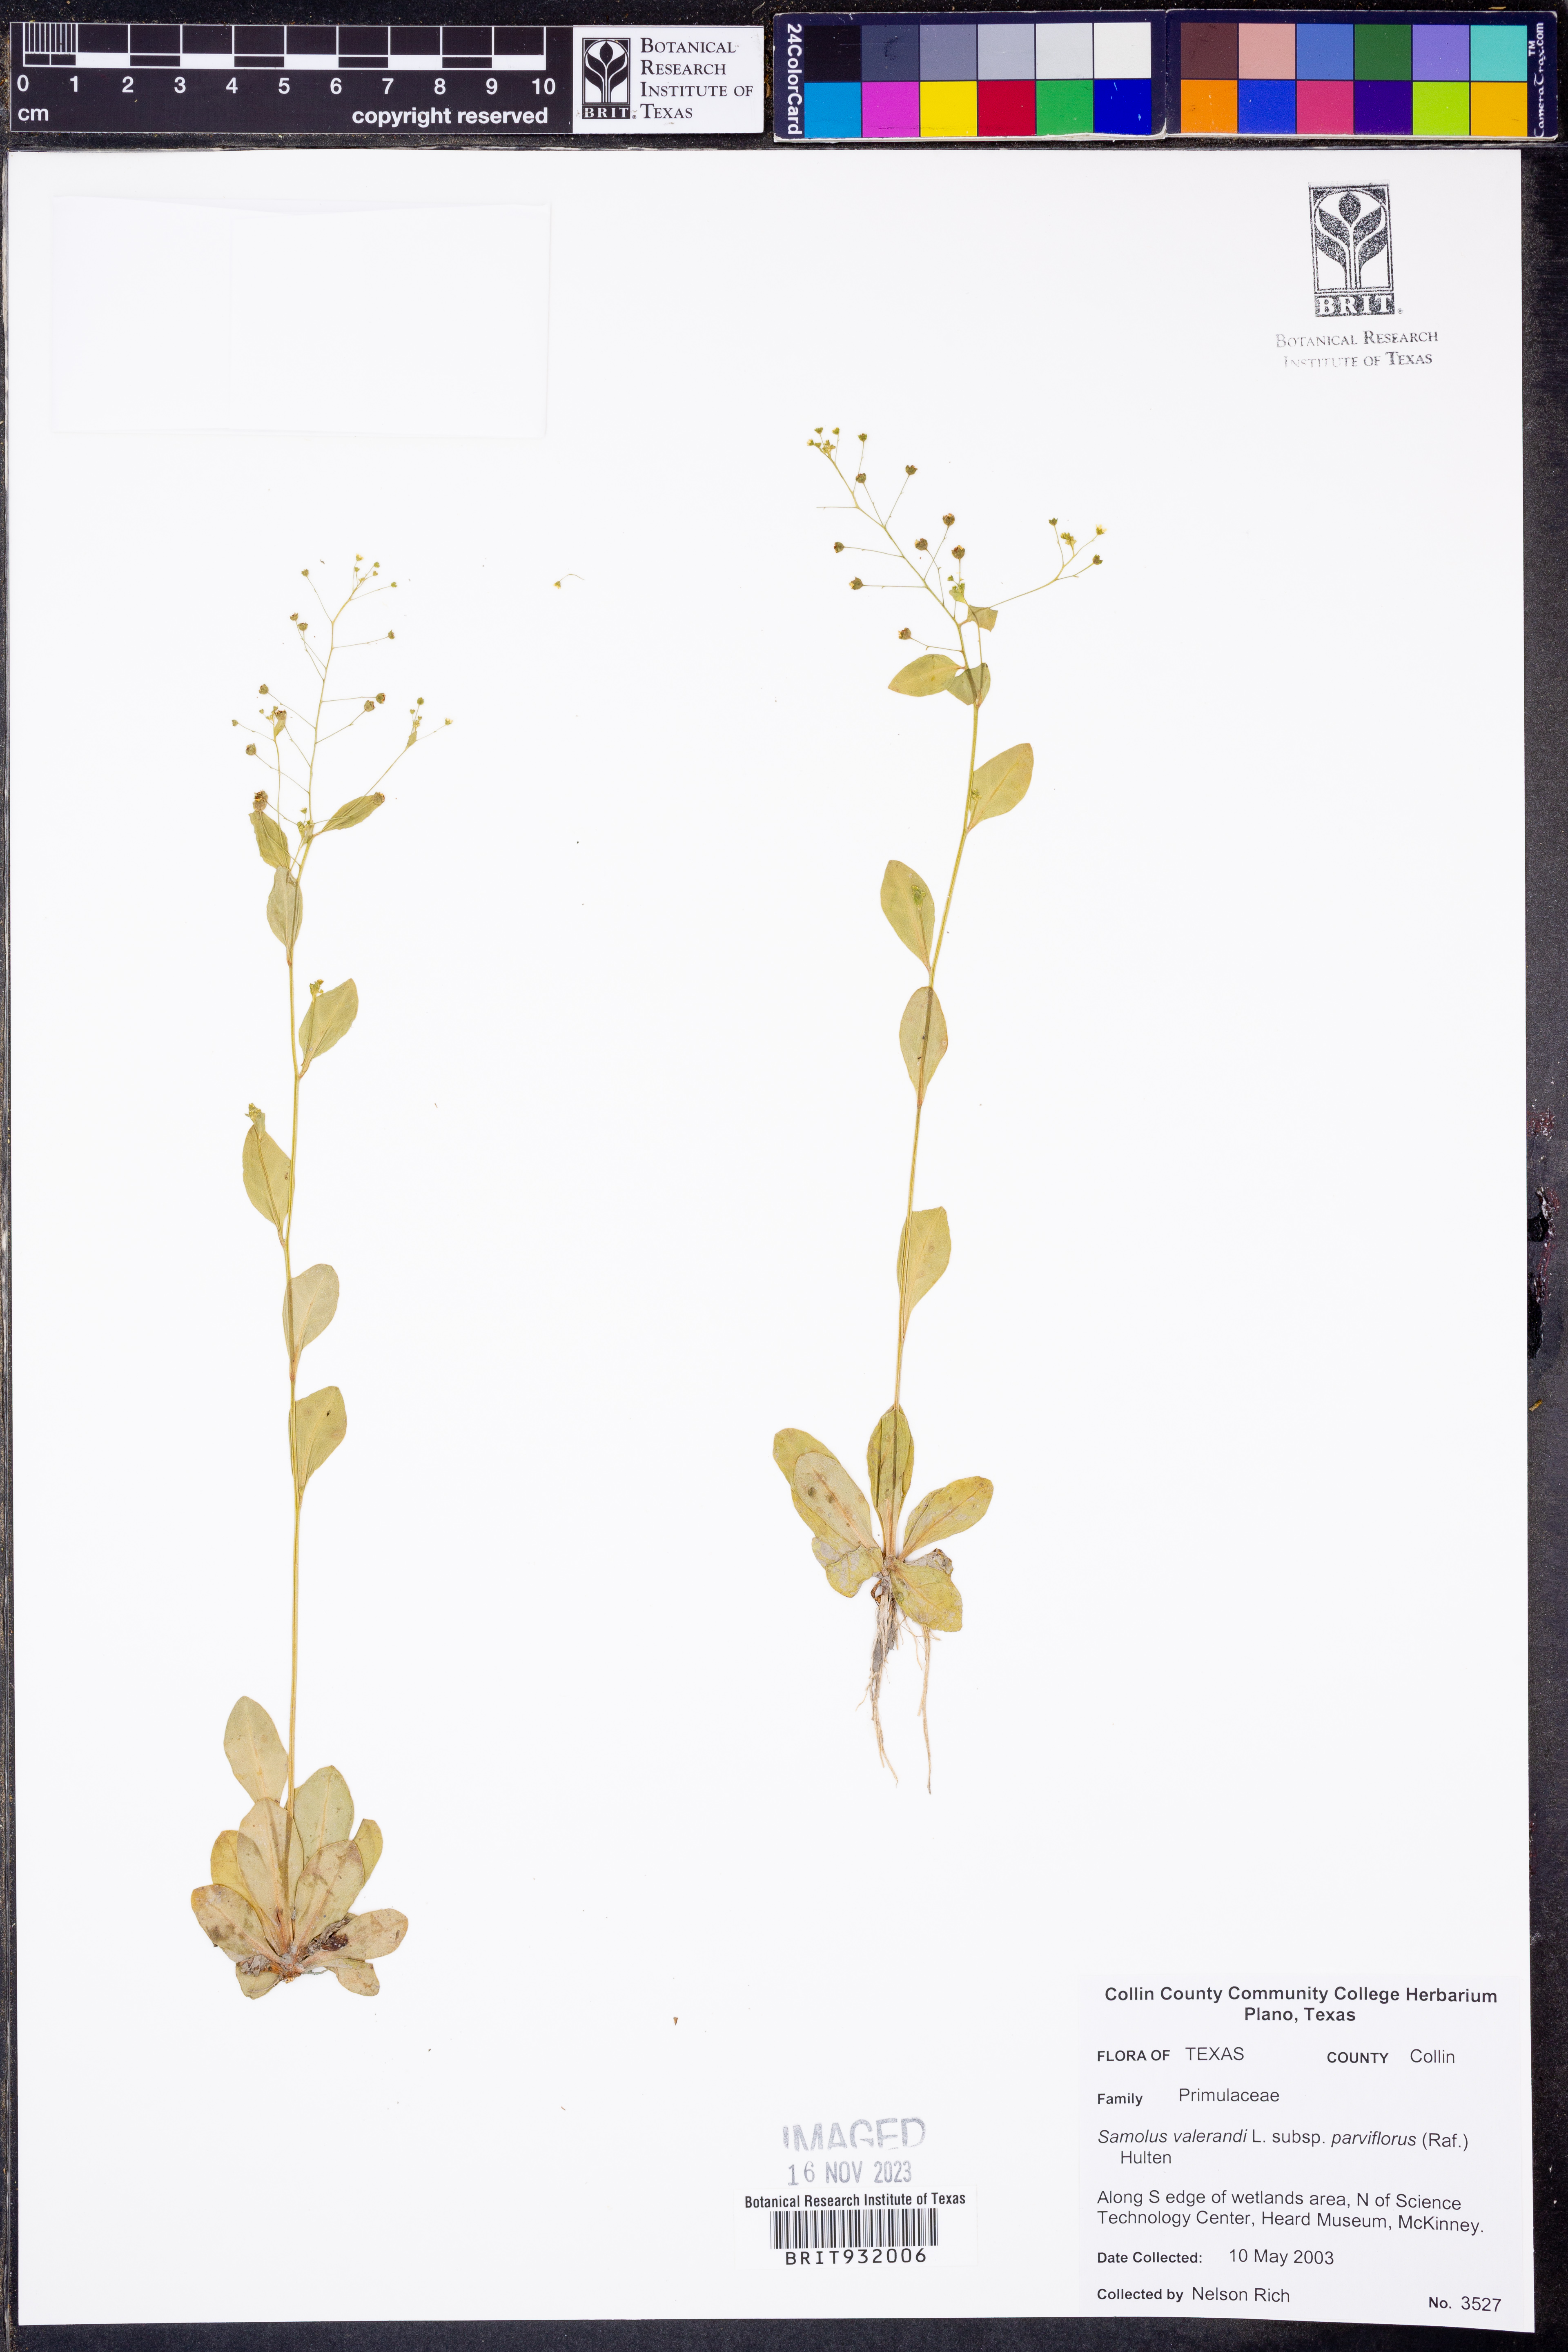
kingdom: Plantae
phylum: Tracheophyta
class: Magnoliopsida
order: Ericales
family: Primulaceae
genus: Samolus
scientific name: Samolus parviflorus
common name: False water pimpernel
